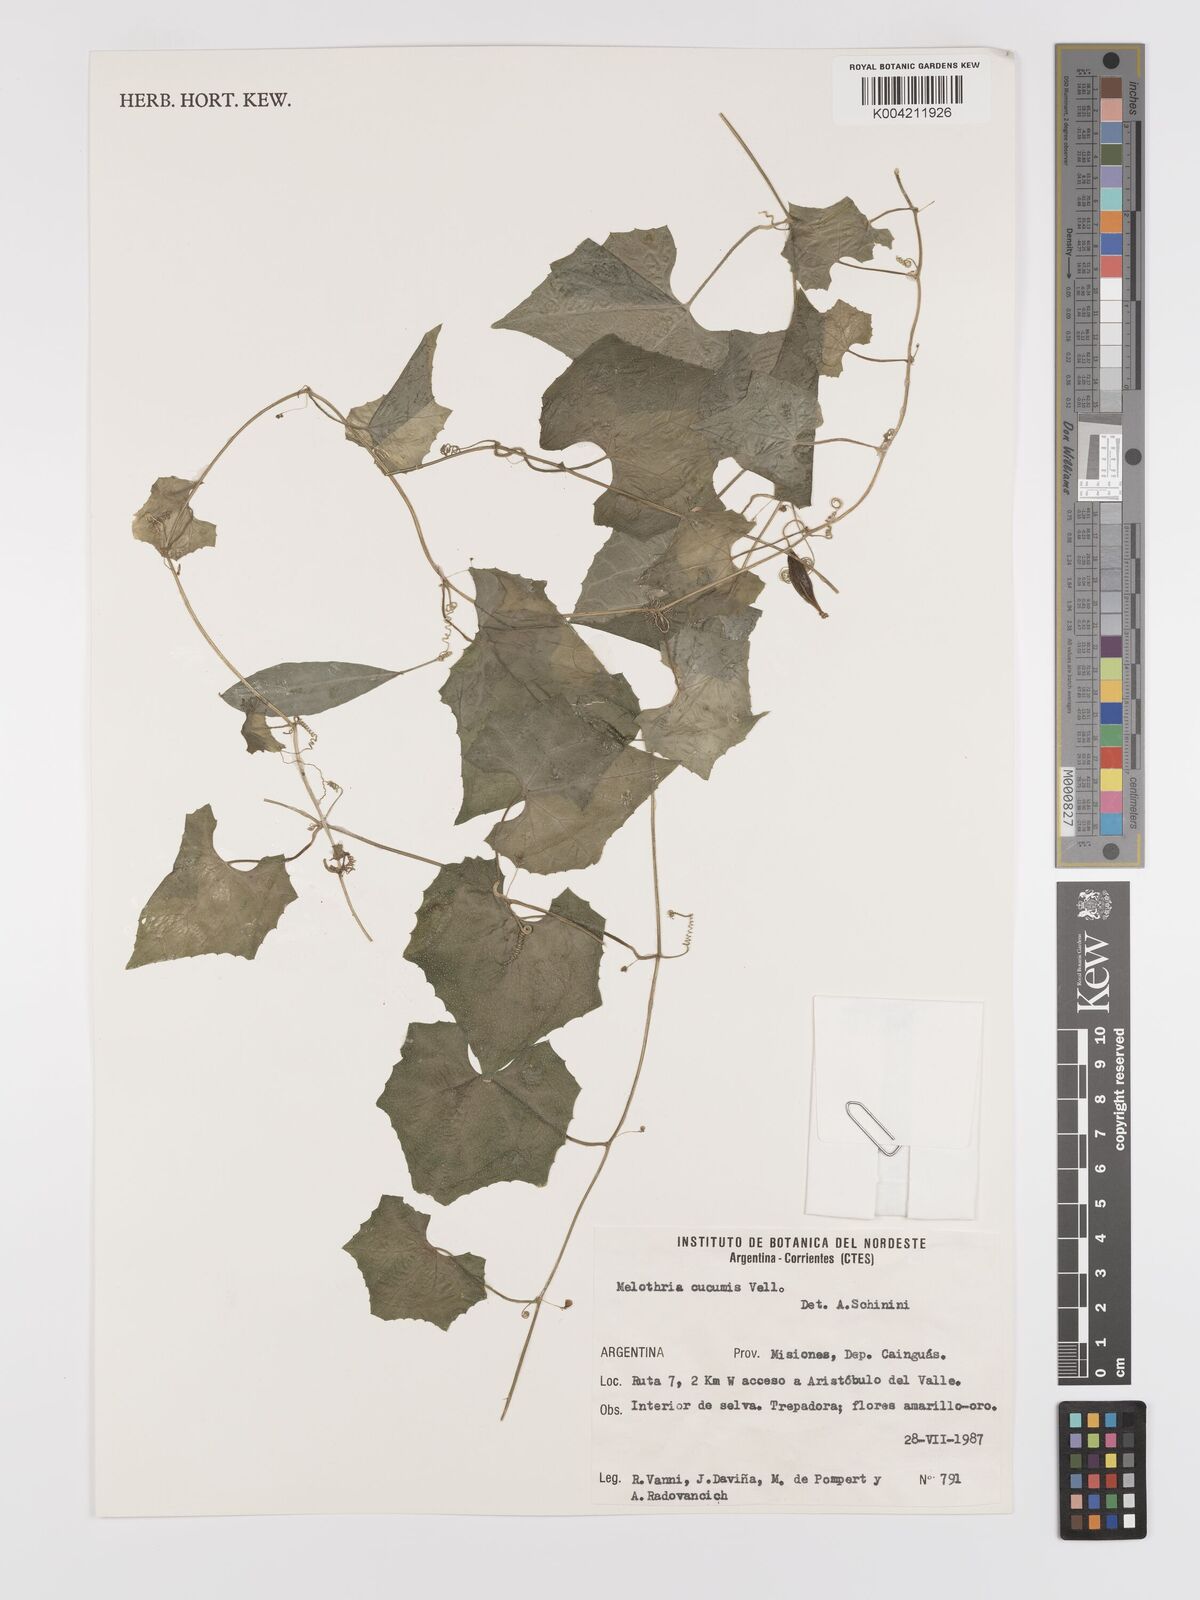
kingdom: Plantae
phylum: Tracheophyta
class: Magnoliopsida
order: Cucurbitales
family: Cucurbitaceae
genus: Melothria
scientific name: Melothria cucumis
